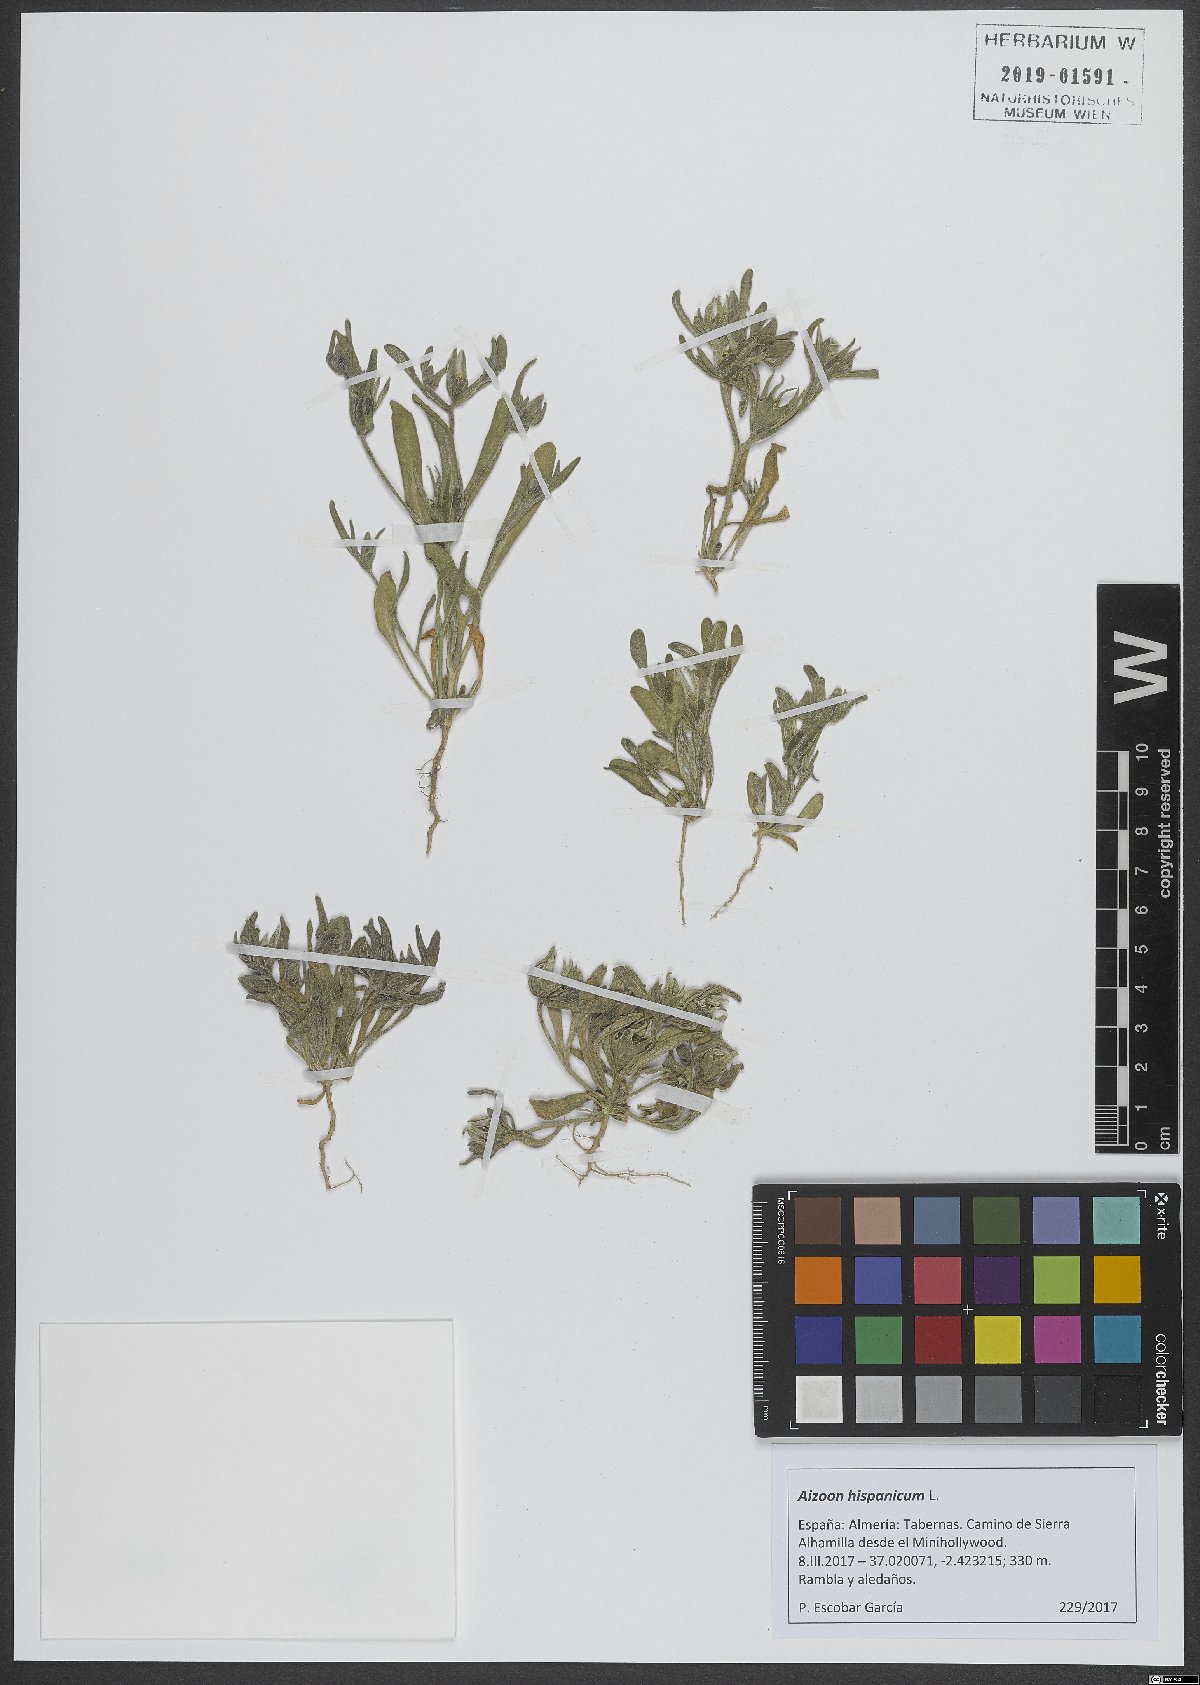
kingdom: Plantae
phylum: Tracheophyta
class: Magnoliopsida
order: Caryophyllales
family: Aizoaceae
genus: Aizoanthemopsis
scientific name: Aizoanthemopsis hispanica
